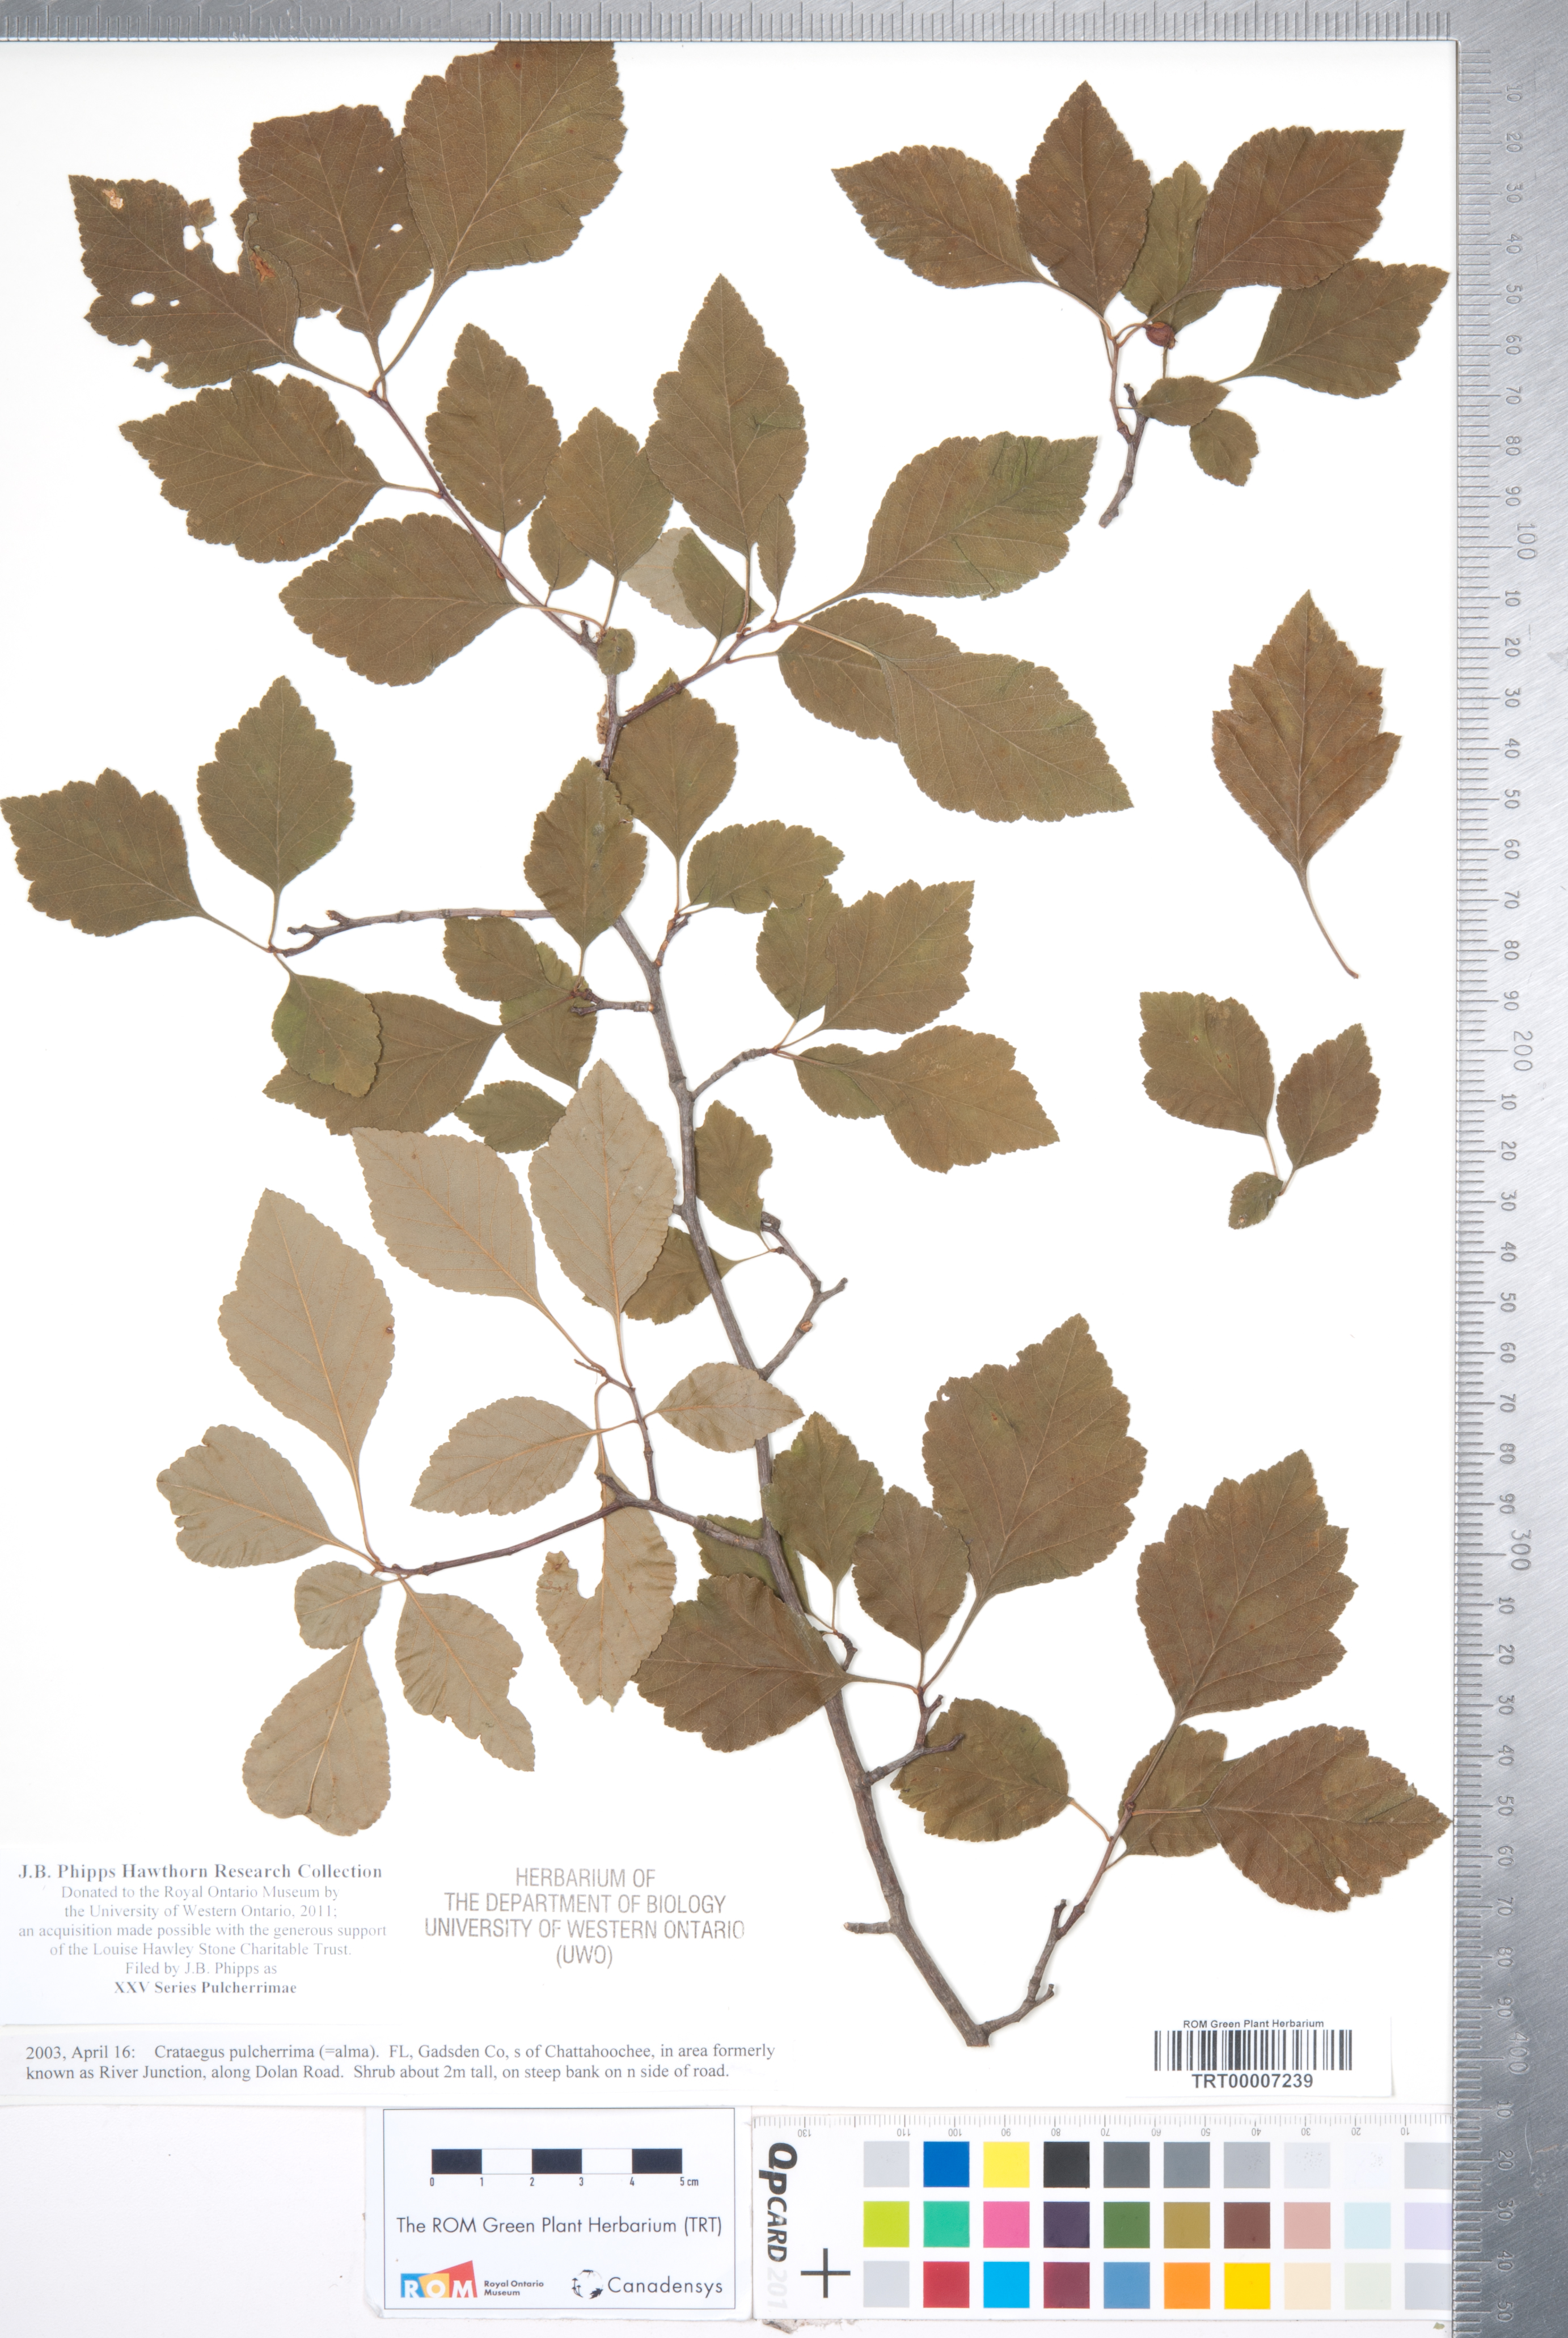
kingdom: Plantae
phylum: Tracheophyta
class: Magnoliopsida
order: Rosales
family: Rosaceae
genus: Crataegus
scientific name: Crataegus
